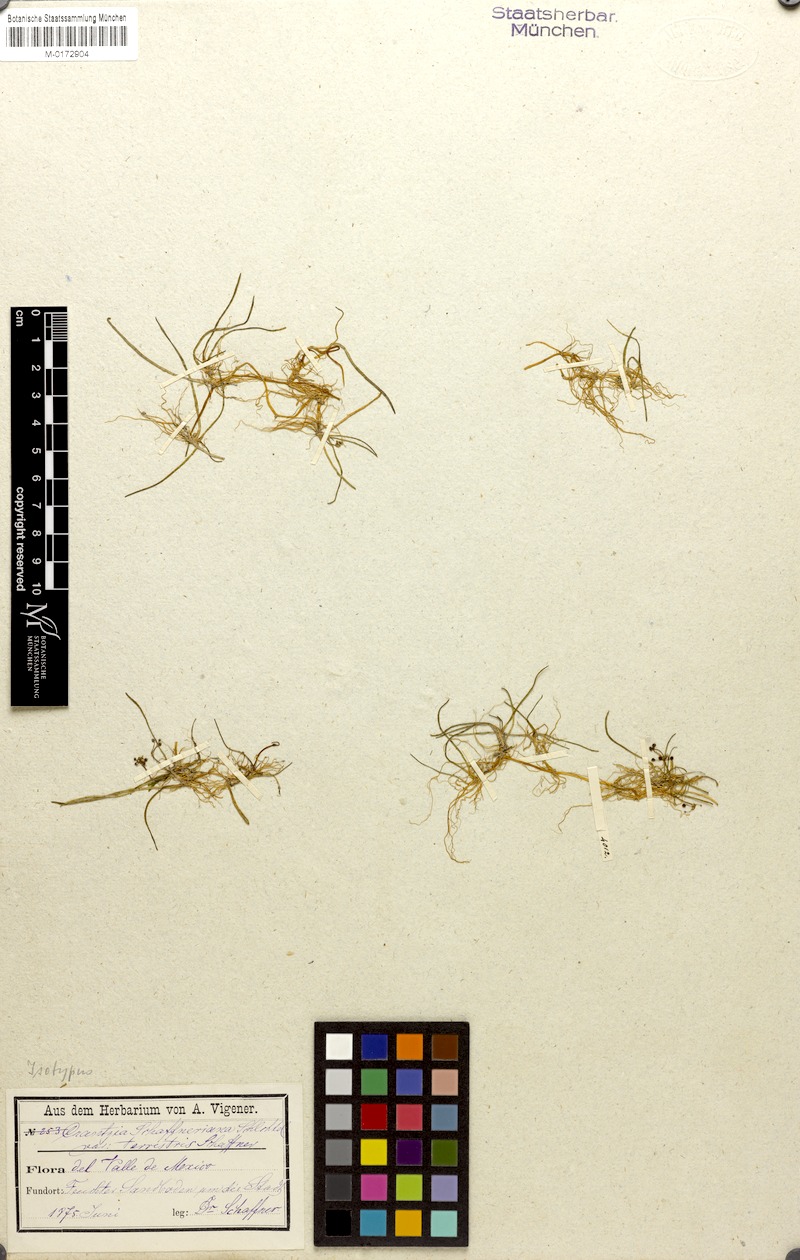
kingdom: Plantae
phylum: Tracheophyta
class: Magnoliopsida
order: Apiales
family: Apiaceae
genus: Lilaeopsis
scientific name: Lilaeopsis schaffneriana
